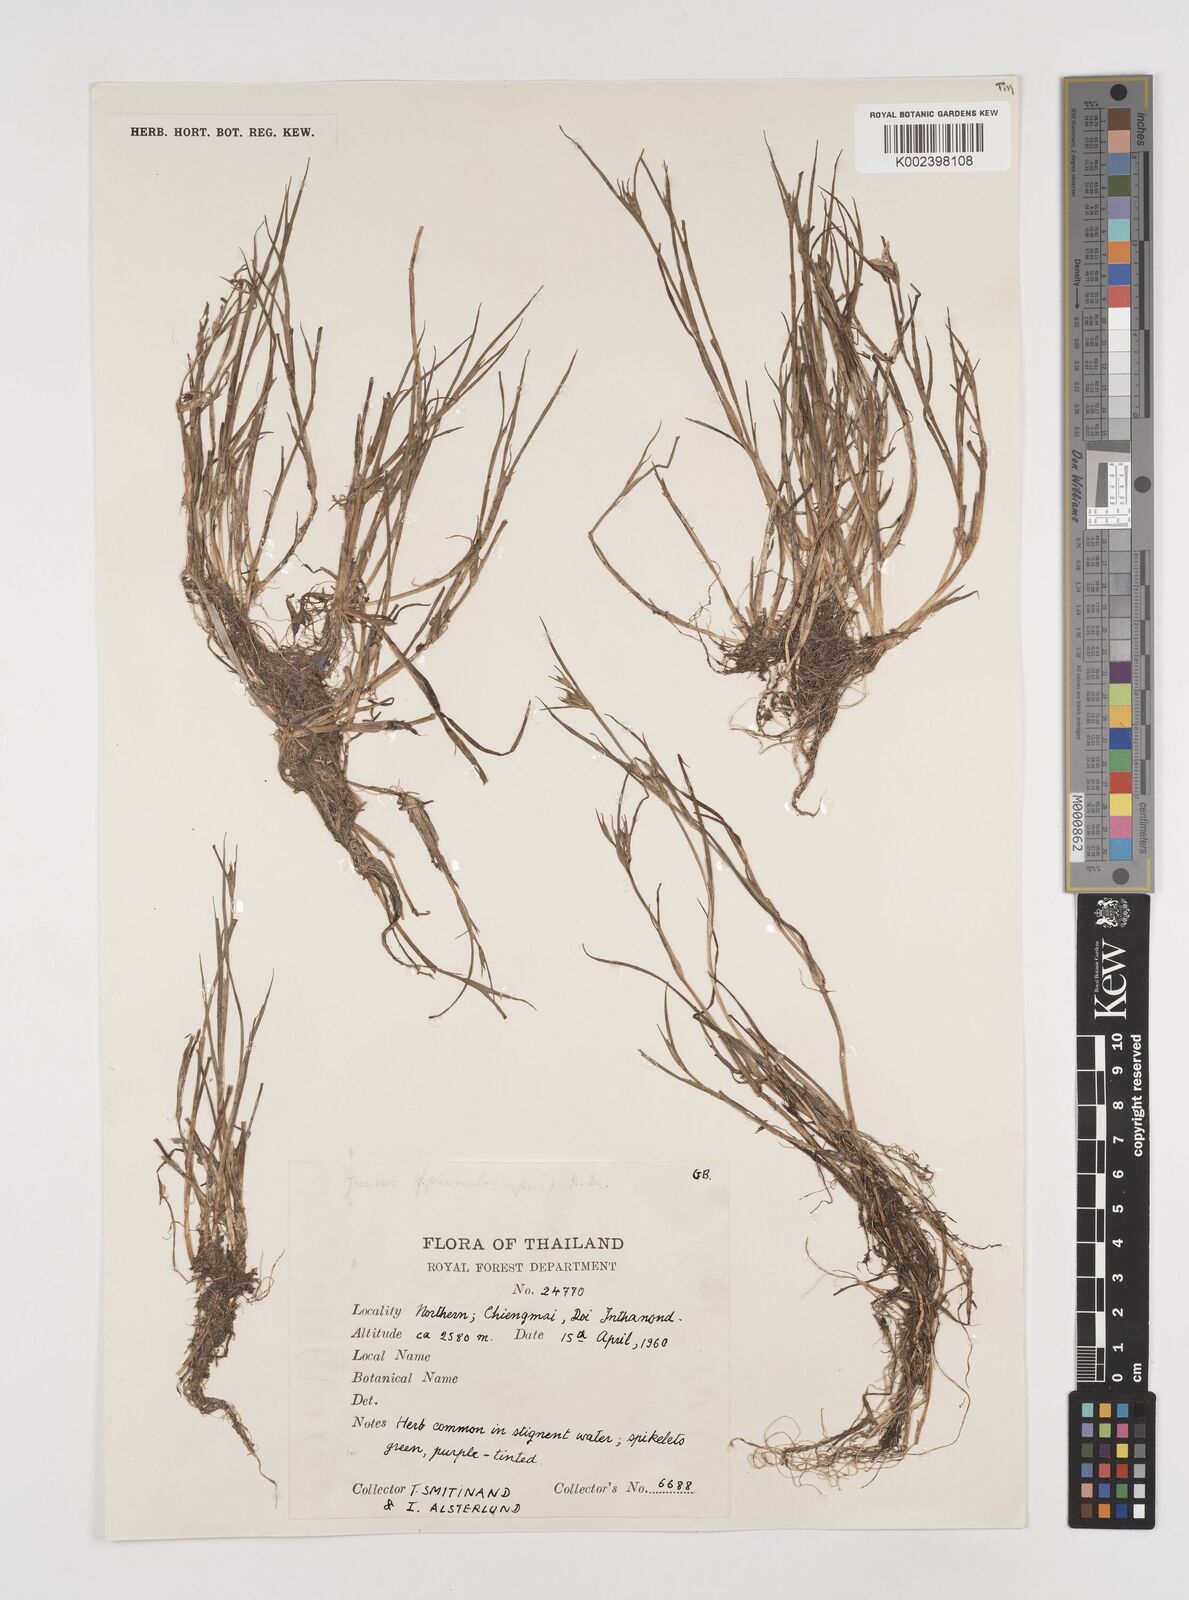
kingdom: Plantae
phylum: Tracheophyta
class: Liliopsida
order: Poales
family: Juncaceae
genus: Juncus
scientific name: Juncus prismatocarpus
